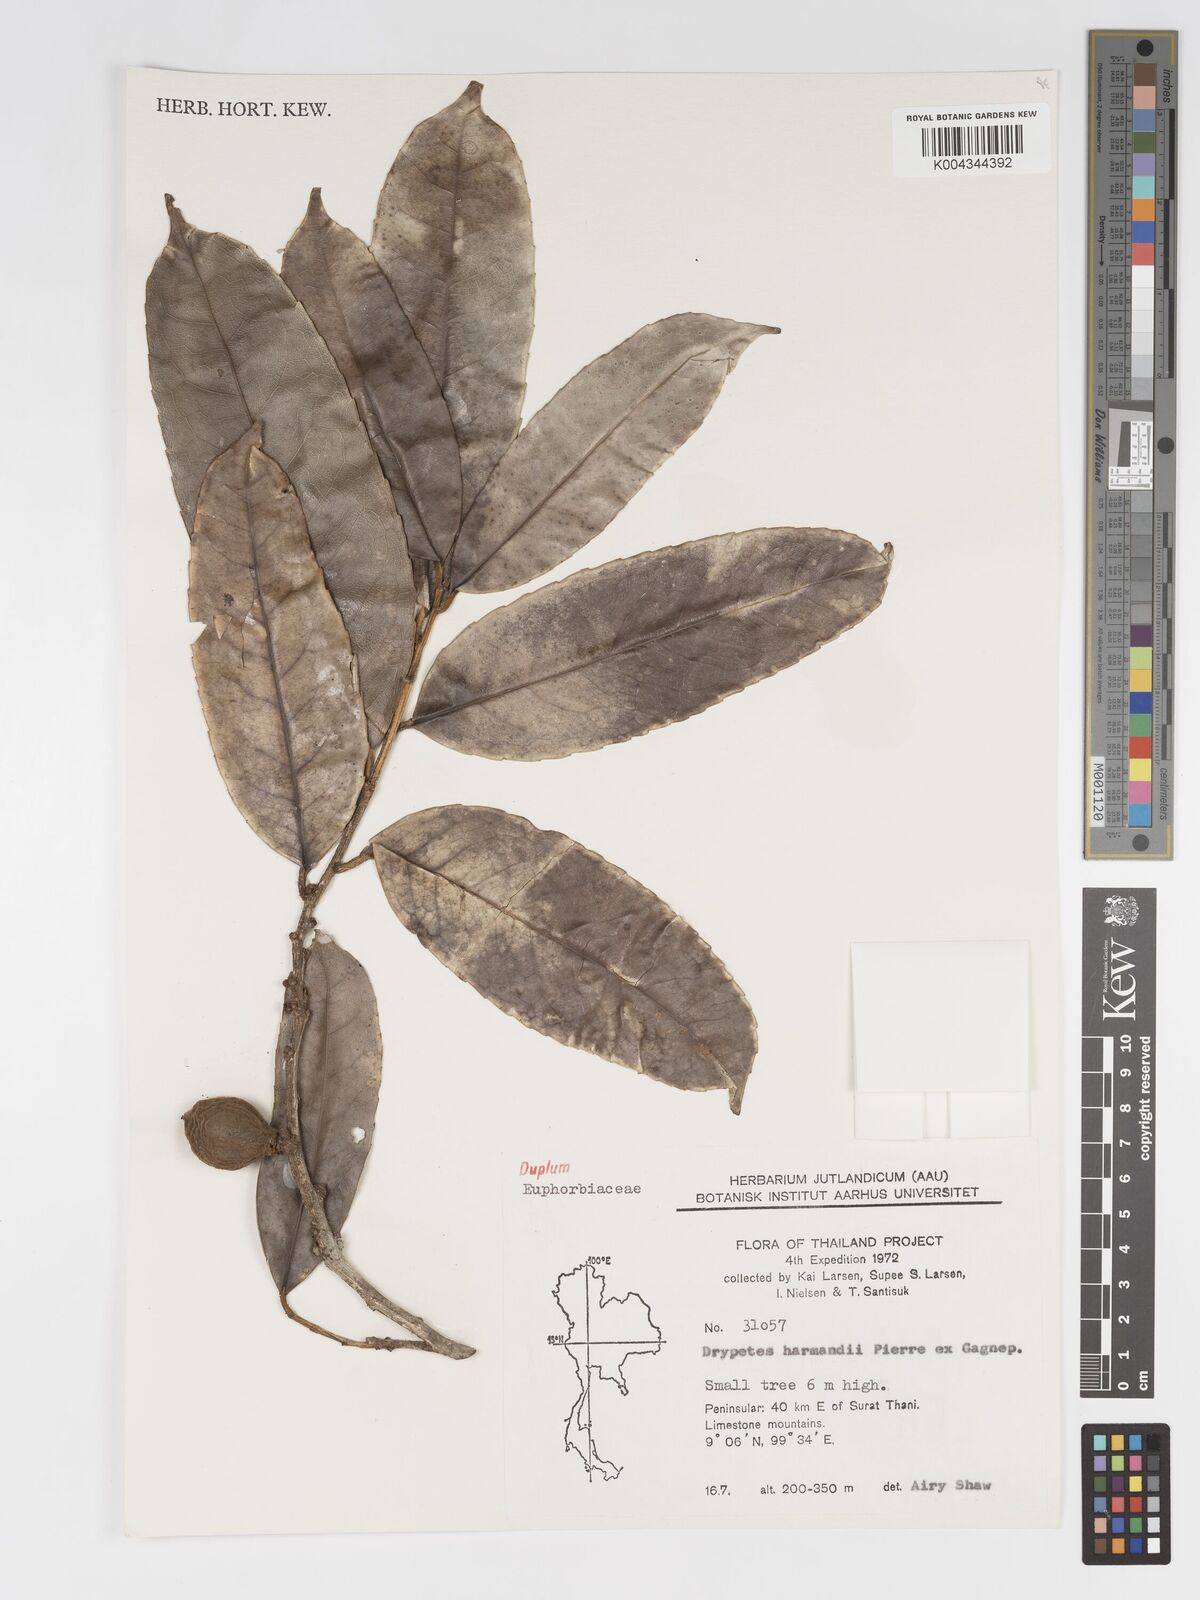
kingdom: Plantae
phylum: Tracheophyta
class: Magnoliopsida
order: Malpighiales
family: Putranjivaceae
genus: Drypetes
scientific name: Drypetes harmandii
